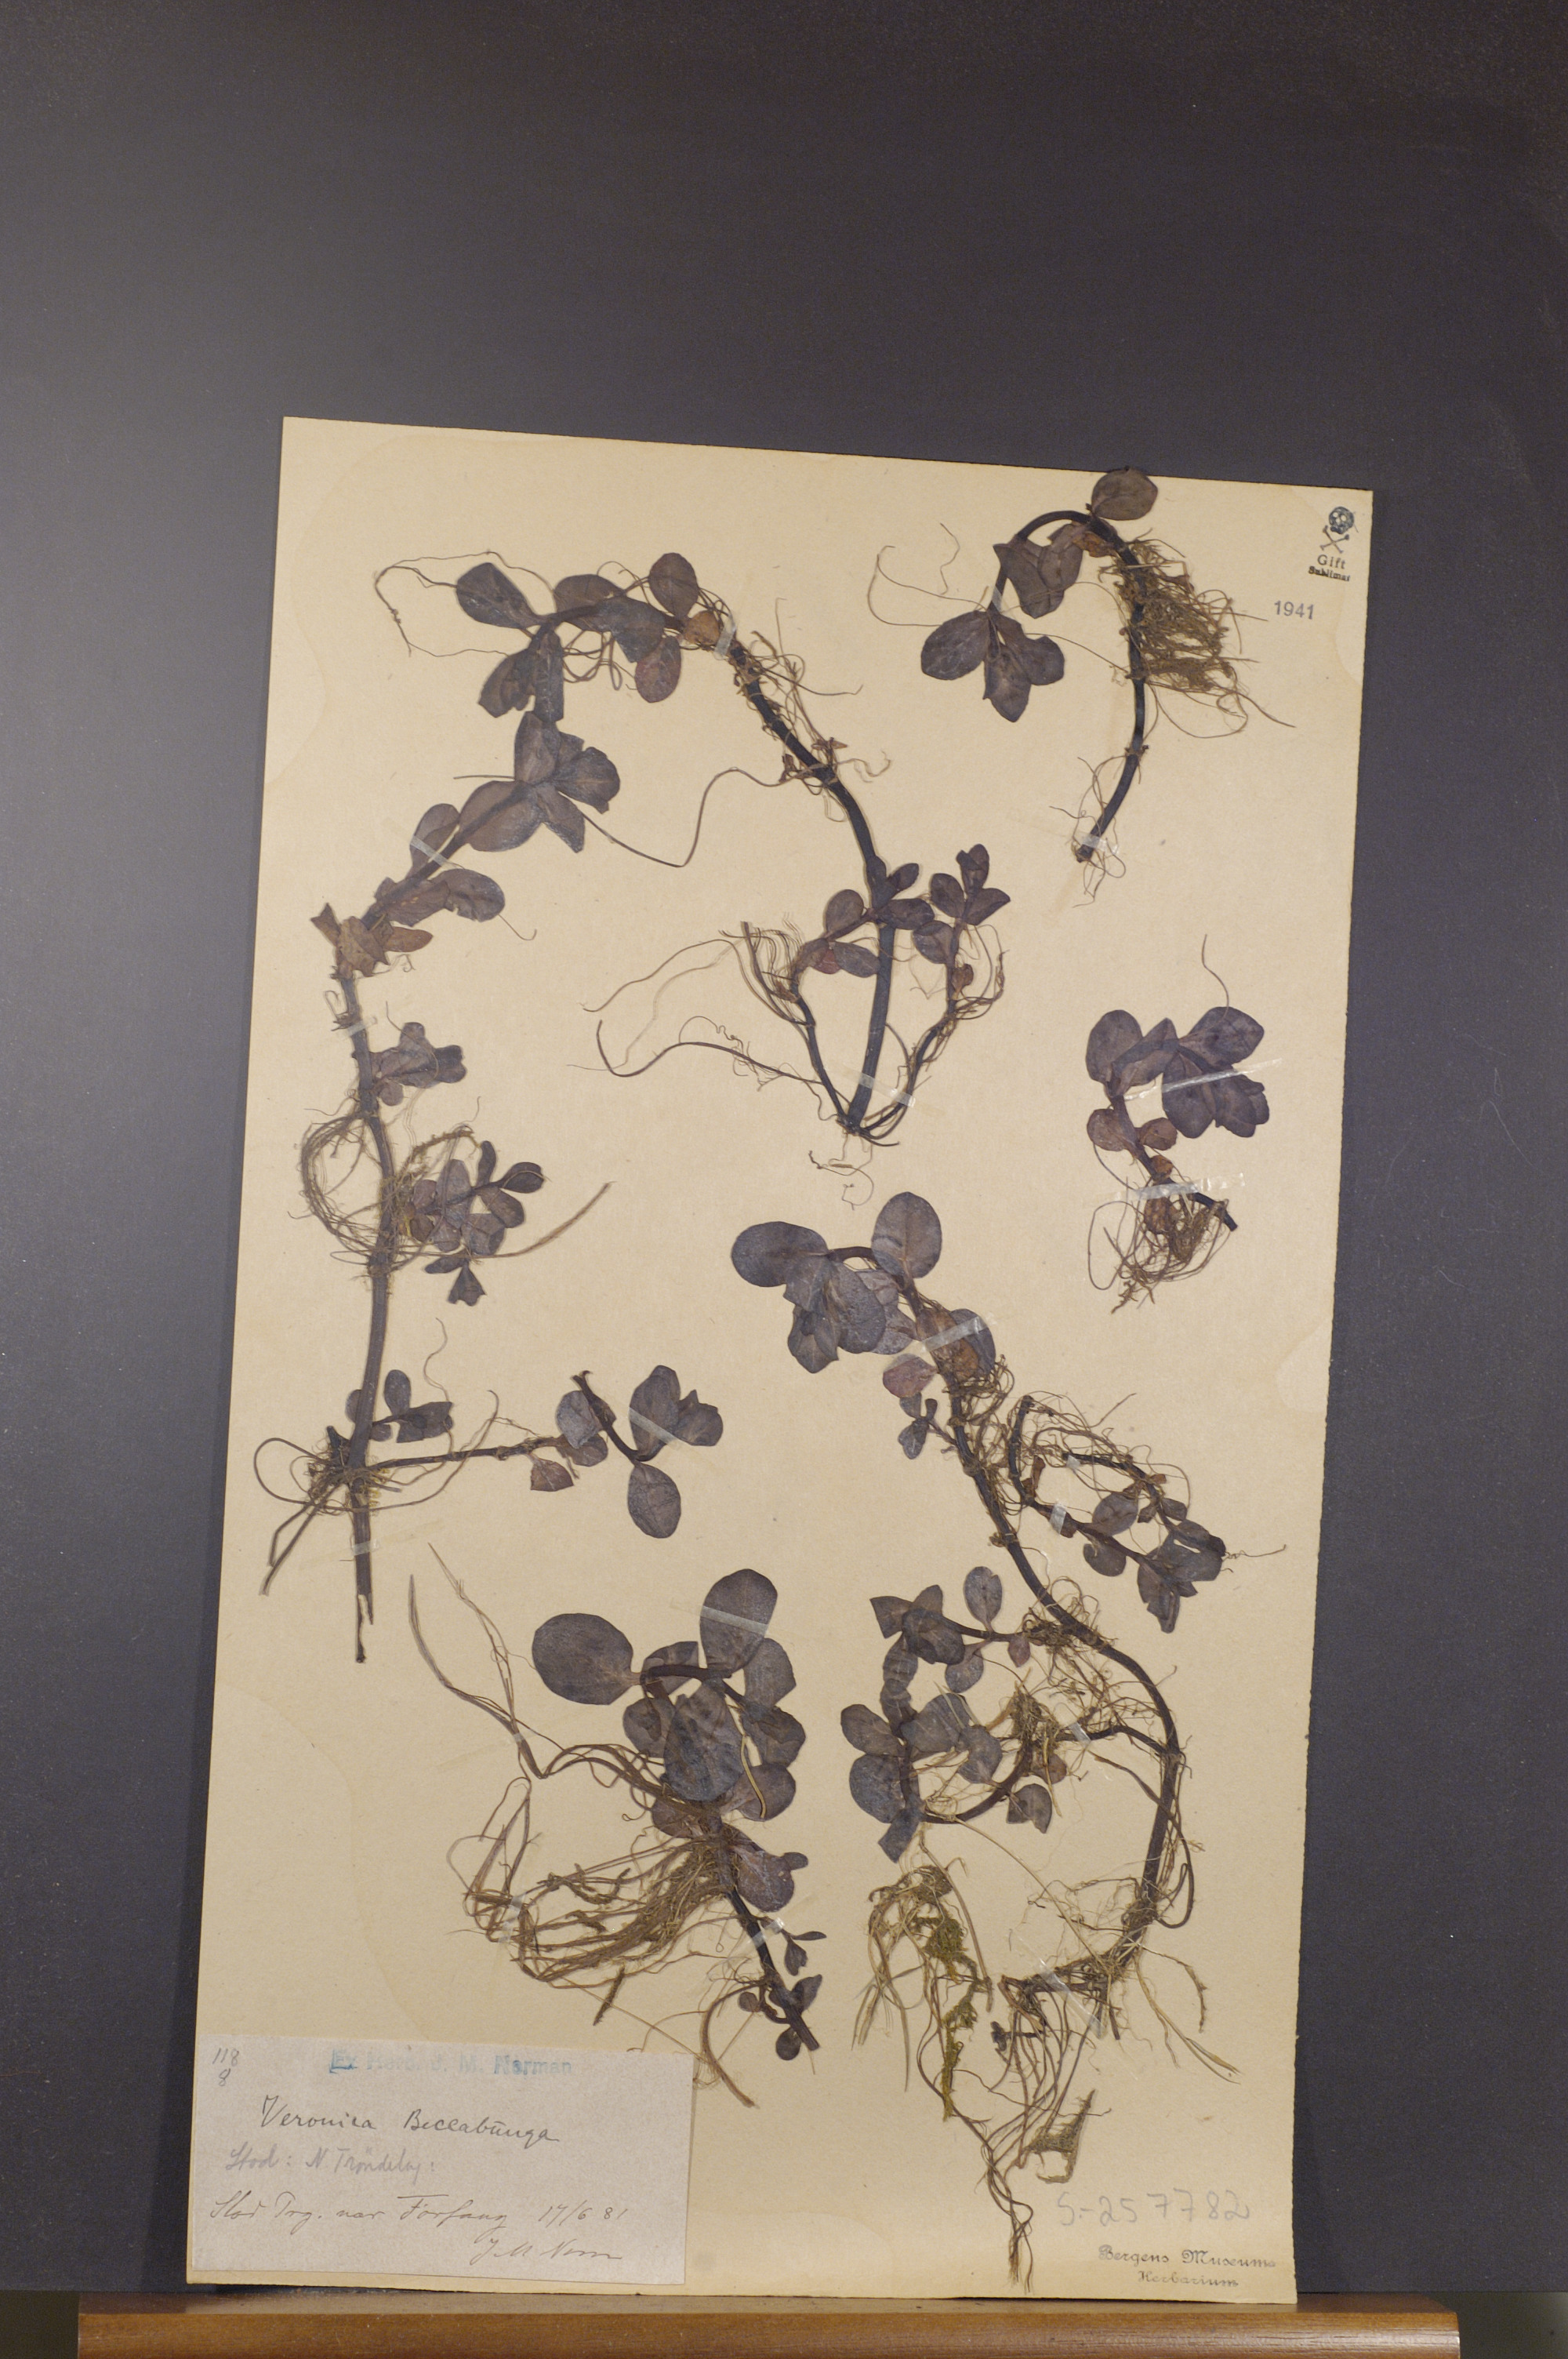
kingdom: Plantae
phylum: Tracheophyta
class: Magnoliopsida
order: Lamiales
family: Plantaginaceae
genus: Veronica
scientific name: Veronica beccabunga
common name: Brooklime
